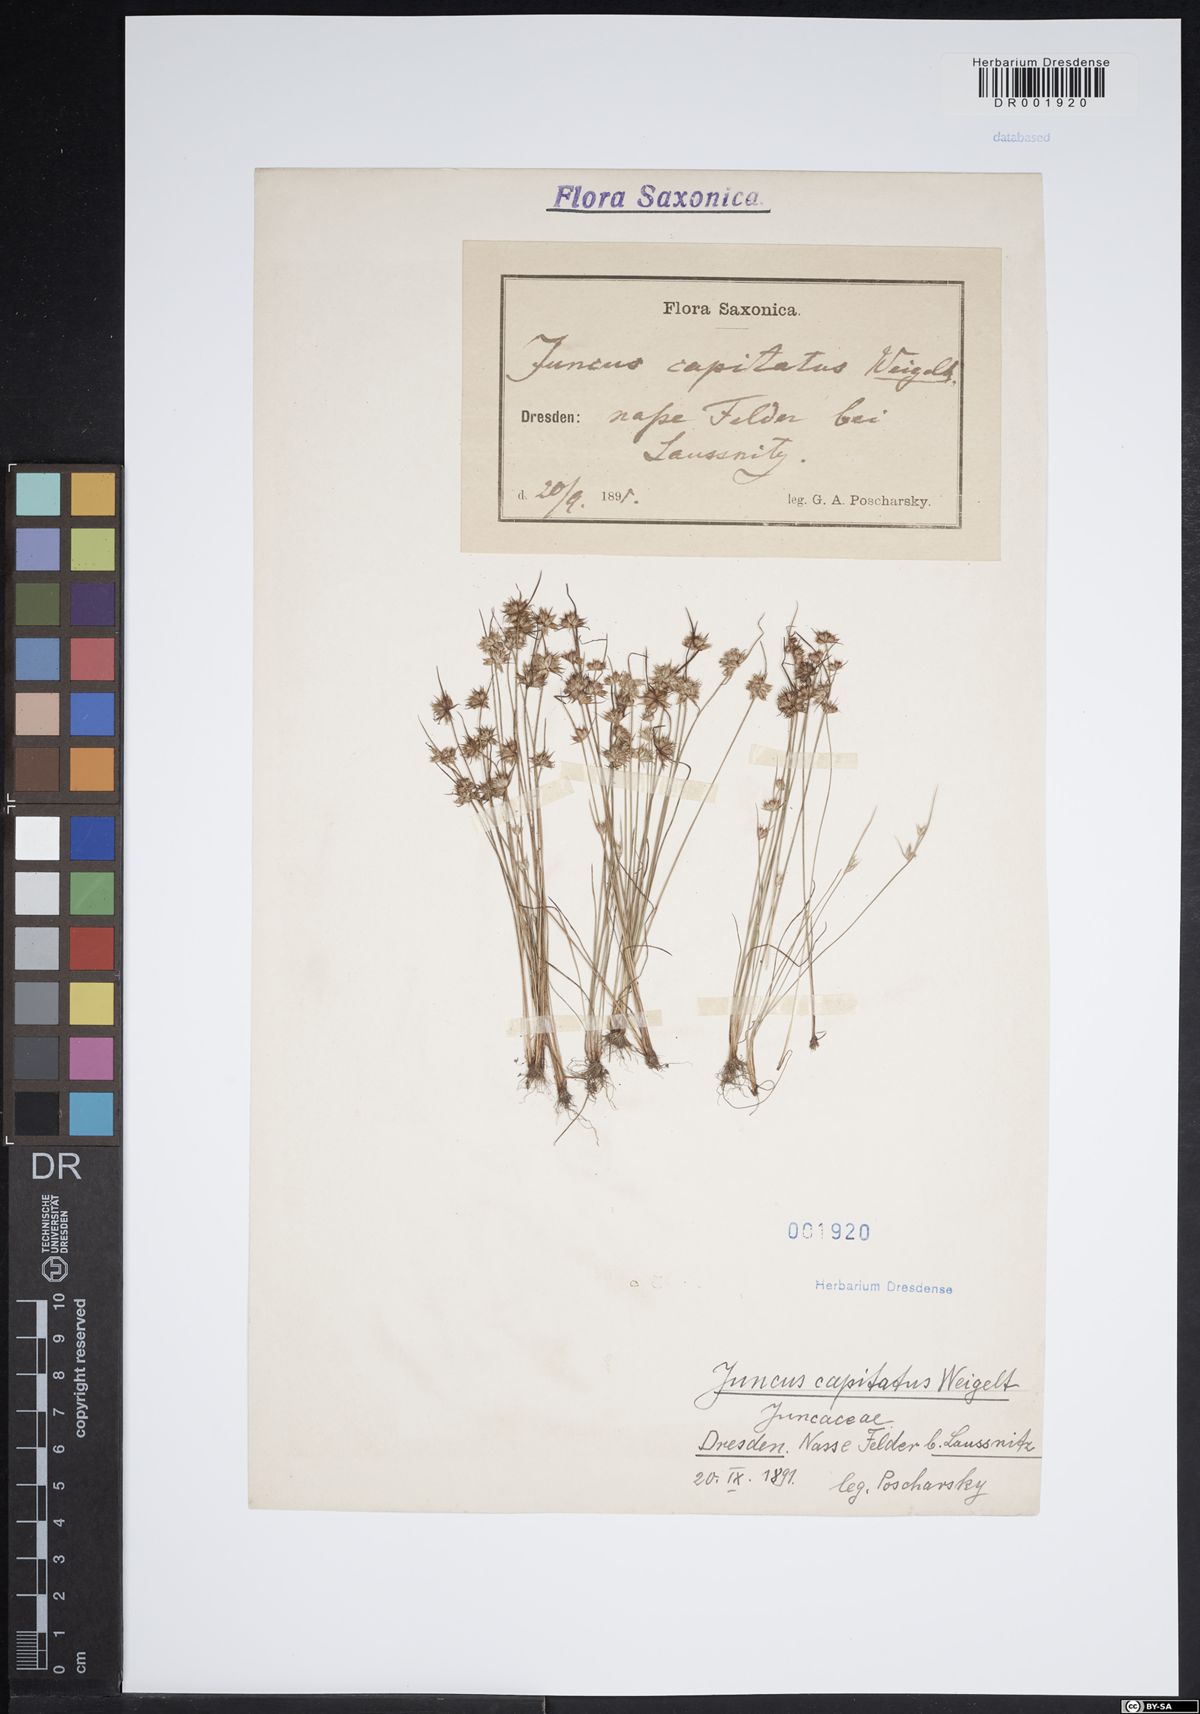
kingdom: Plantae
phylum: Tracheophyta
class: Liliopsida
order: Poales
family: Juncaceae
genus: Juncus
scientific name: Juncus capitatus
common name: Dwarf rush
